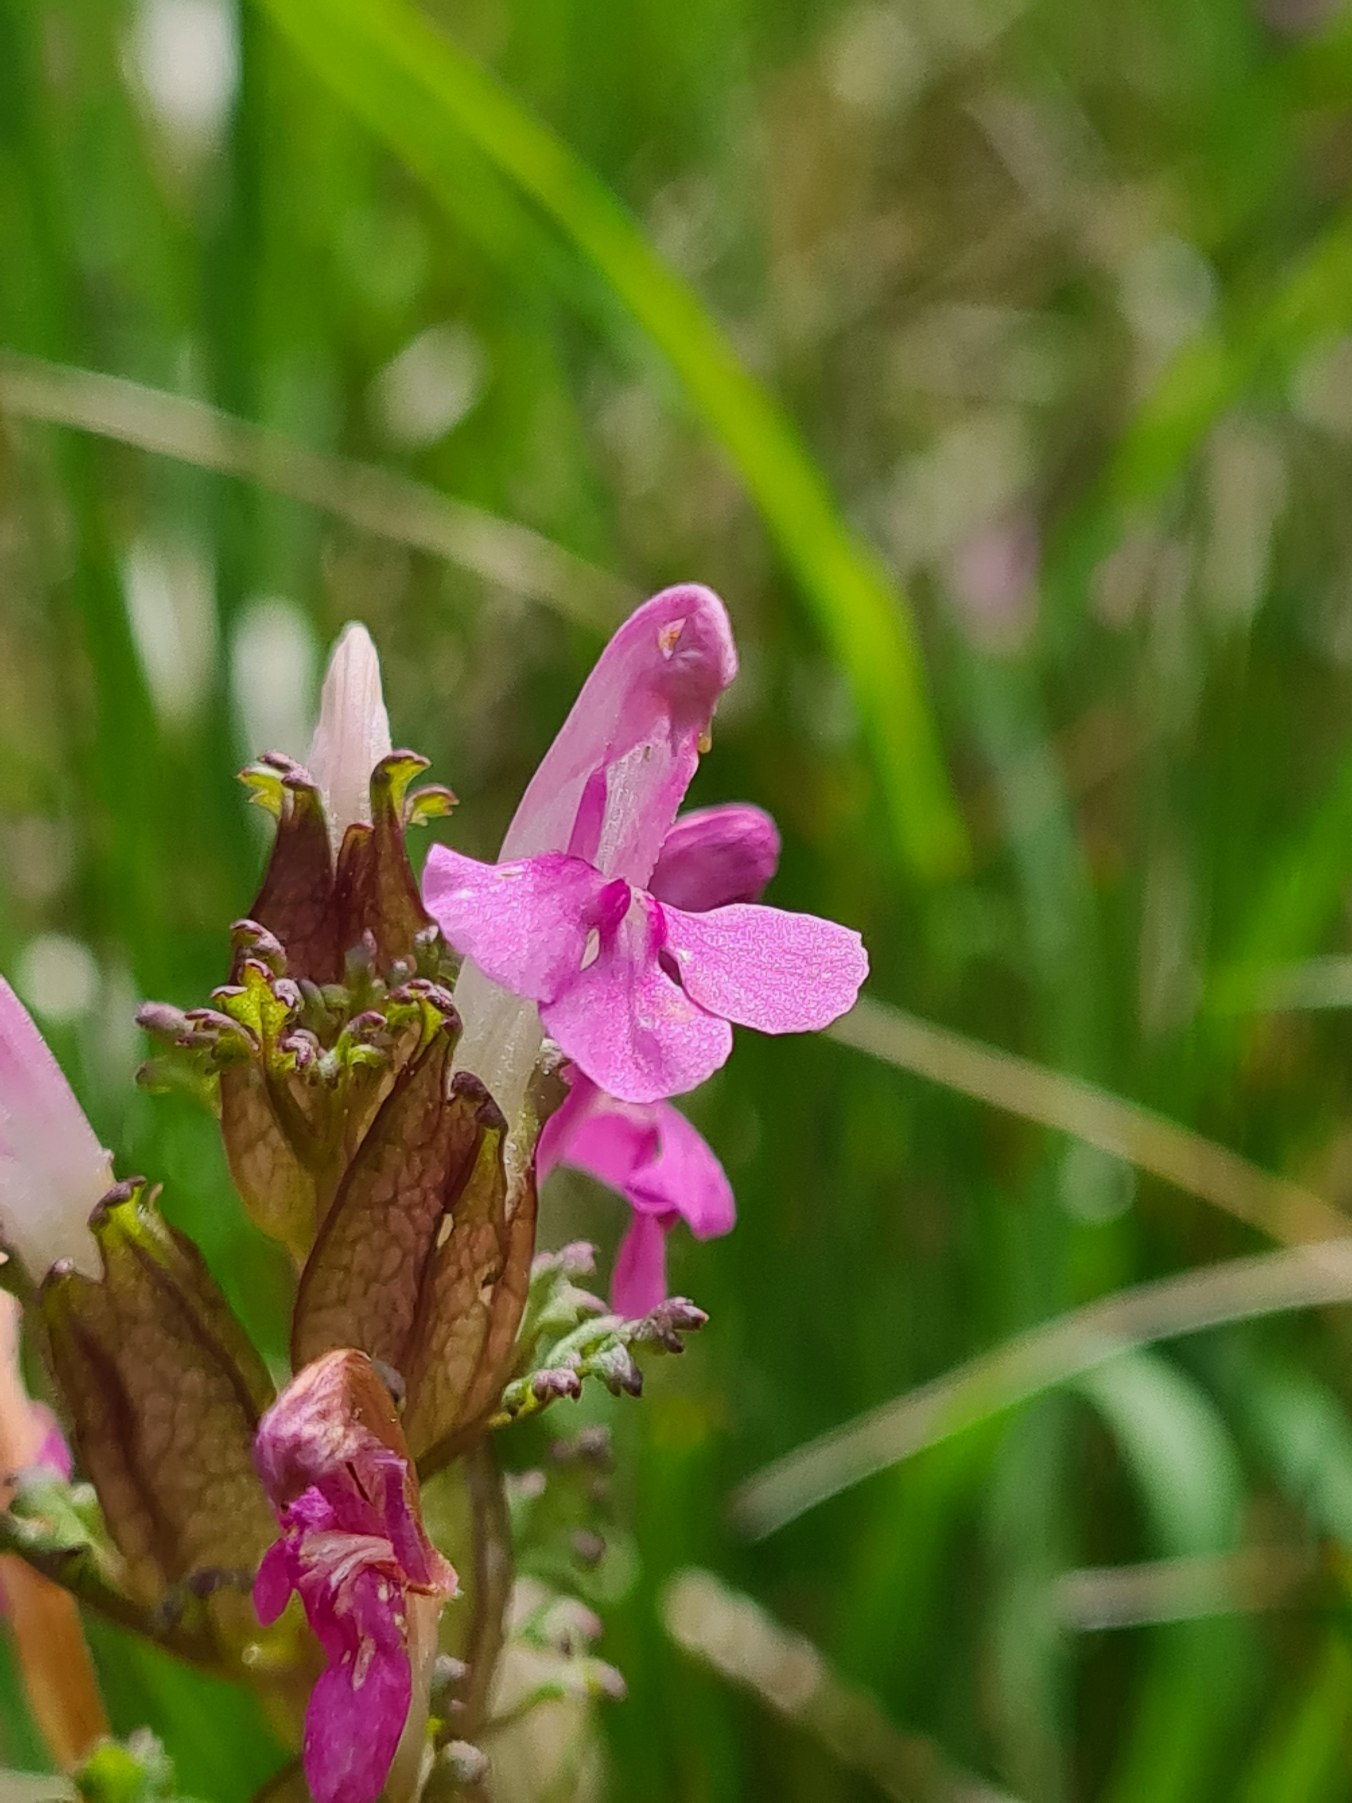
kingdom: Plantae
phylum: Tracheophyta
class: Magnoliopsida
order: Lamiales
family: Orobanchaceae
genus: Pedicularis
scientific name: Pedicularis sylvatica
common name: Mose-troldurt
